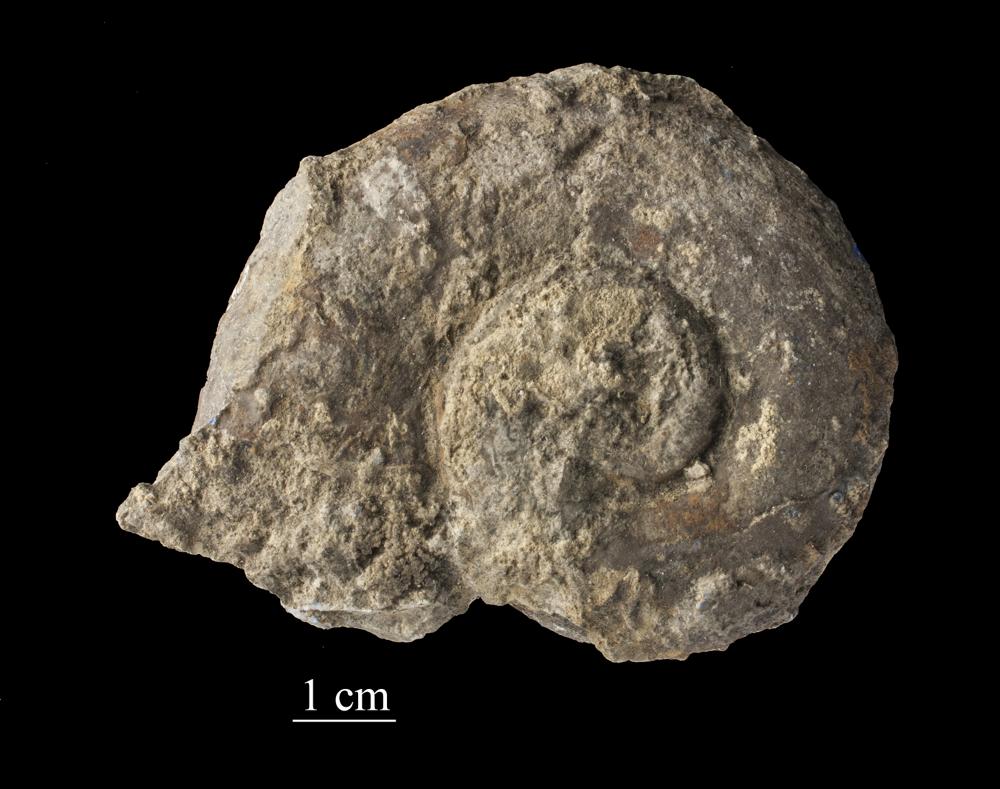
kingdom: Animalia
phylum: Mollusca
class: Gastropoda
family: Lesueurillidae
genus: Lesueurilla
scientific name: Lesueurilla Maclurea infundibulum
